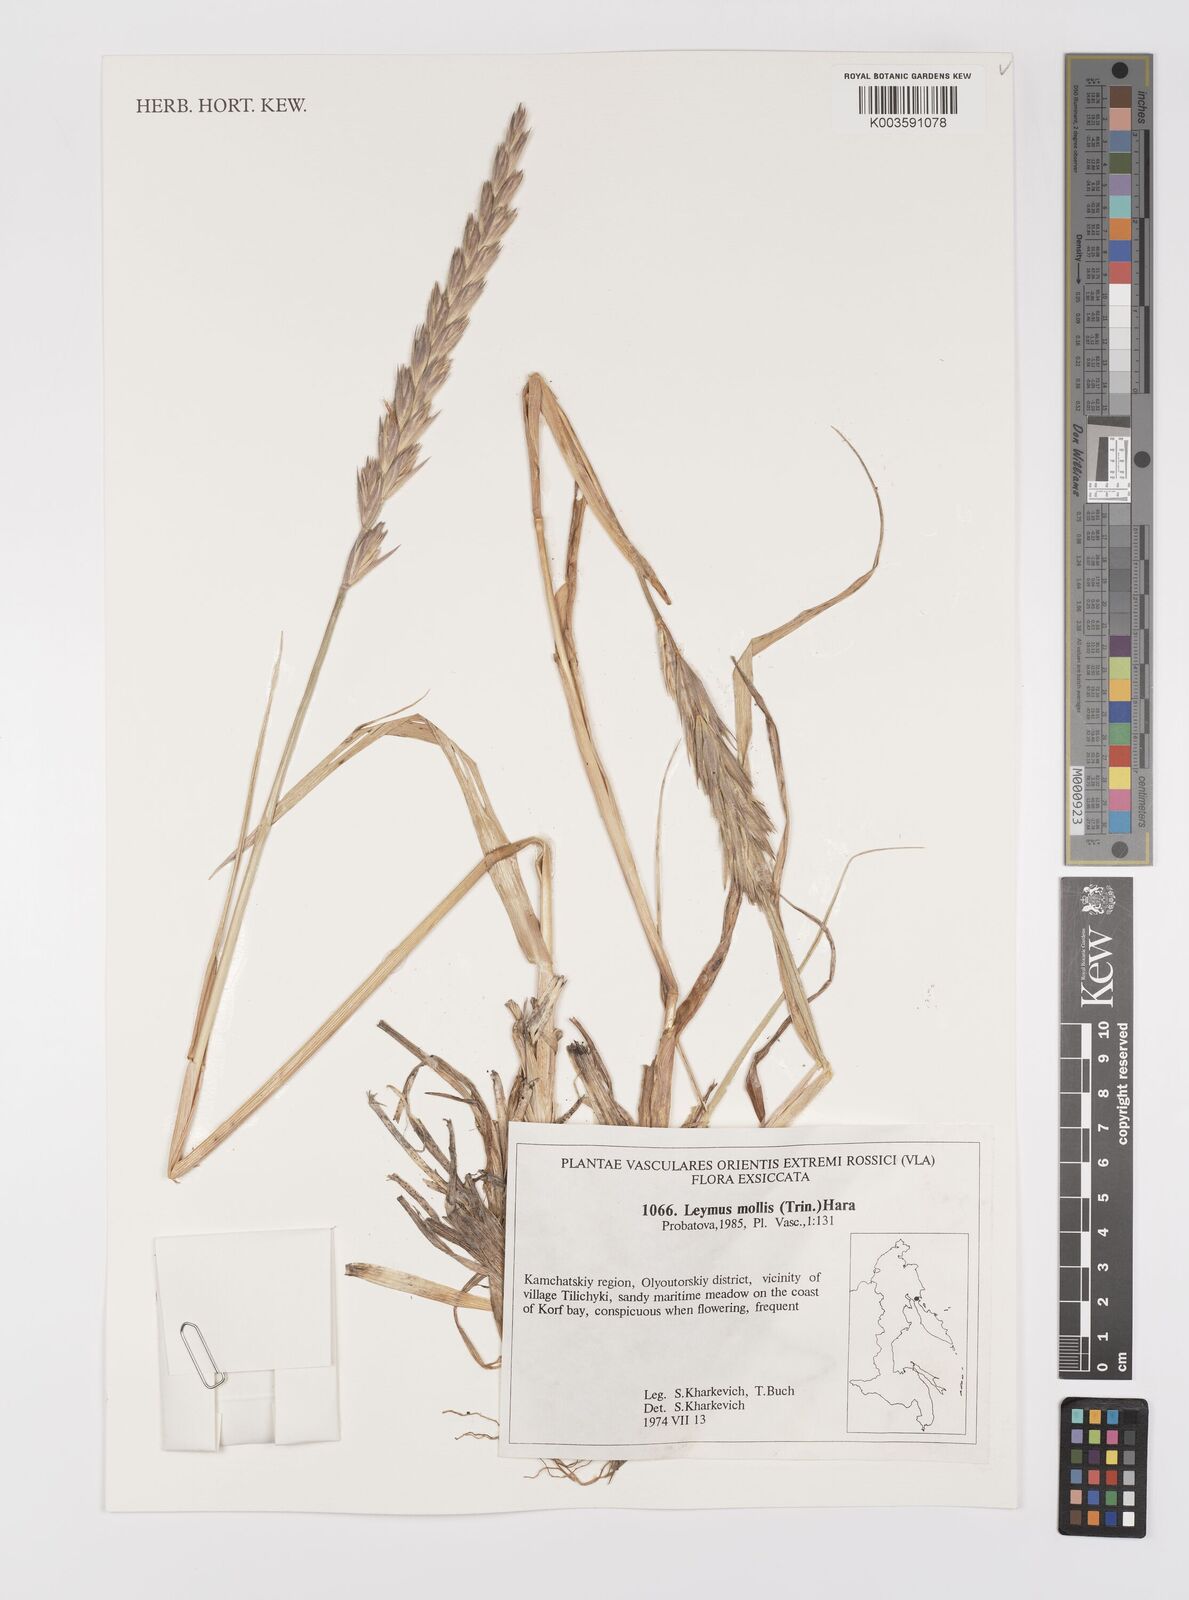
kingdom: Plantae
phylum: Tracheophyta
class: Liliopsida
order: Poales
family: Poaceae
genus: Leymus
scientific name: Leymus mollis
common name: American dune grass
